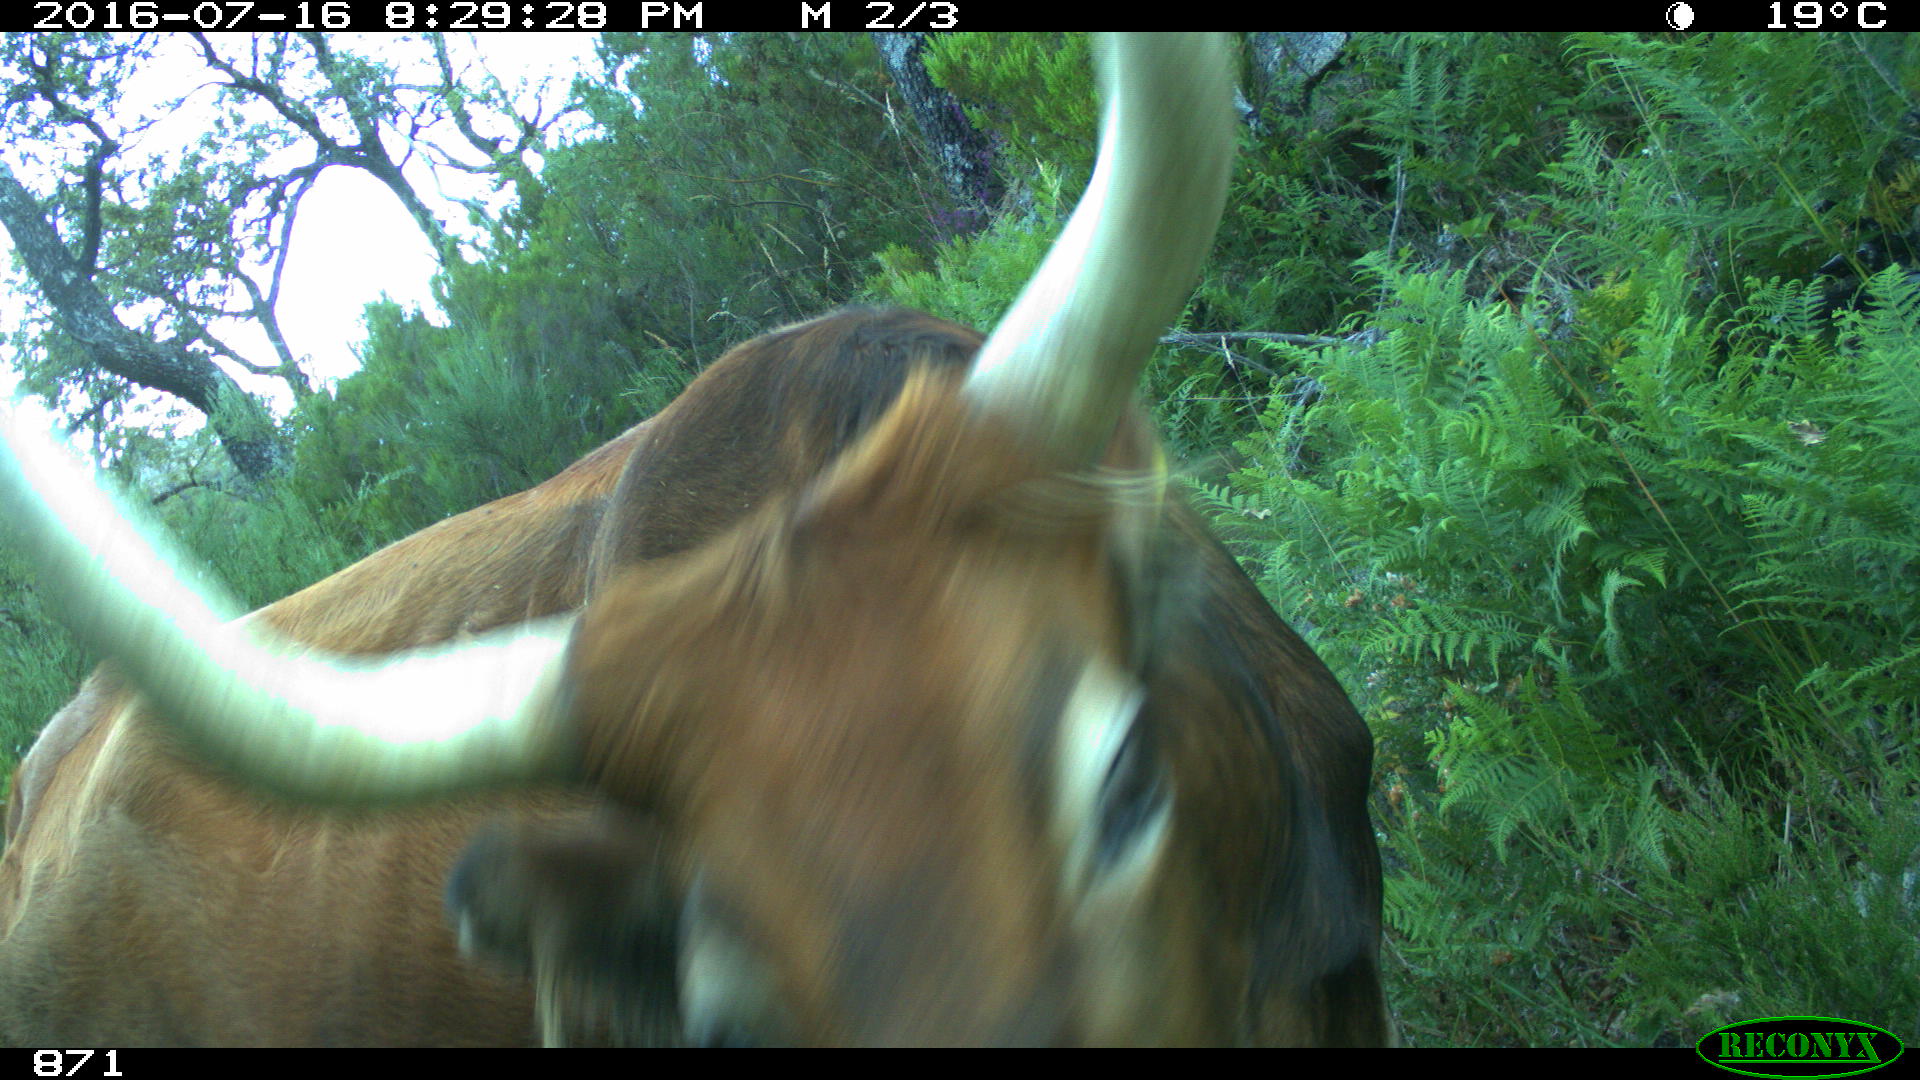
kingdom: Animalia
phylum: Chordata
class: Mammalia
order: Artiodactyla
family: Bovidae
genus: Bos
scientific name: Bos taurus
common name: Domesticated cattle
